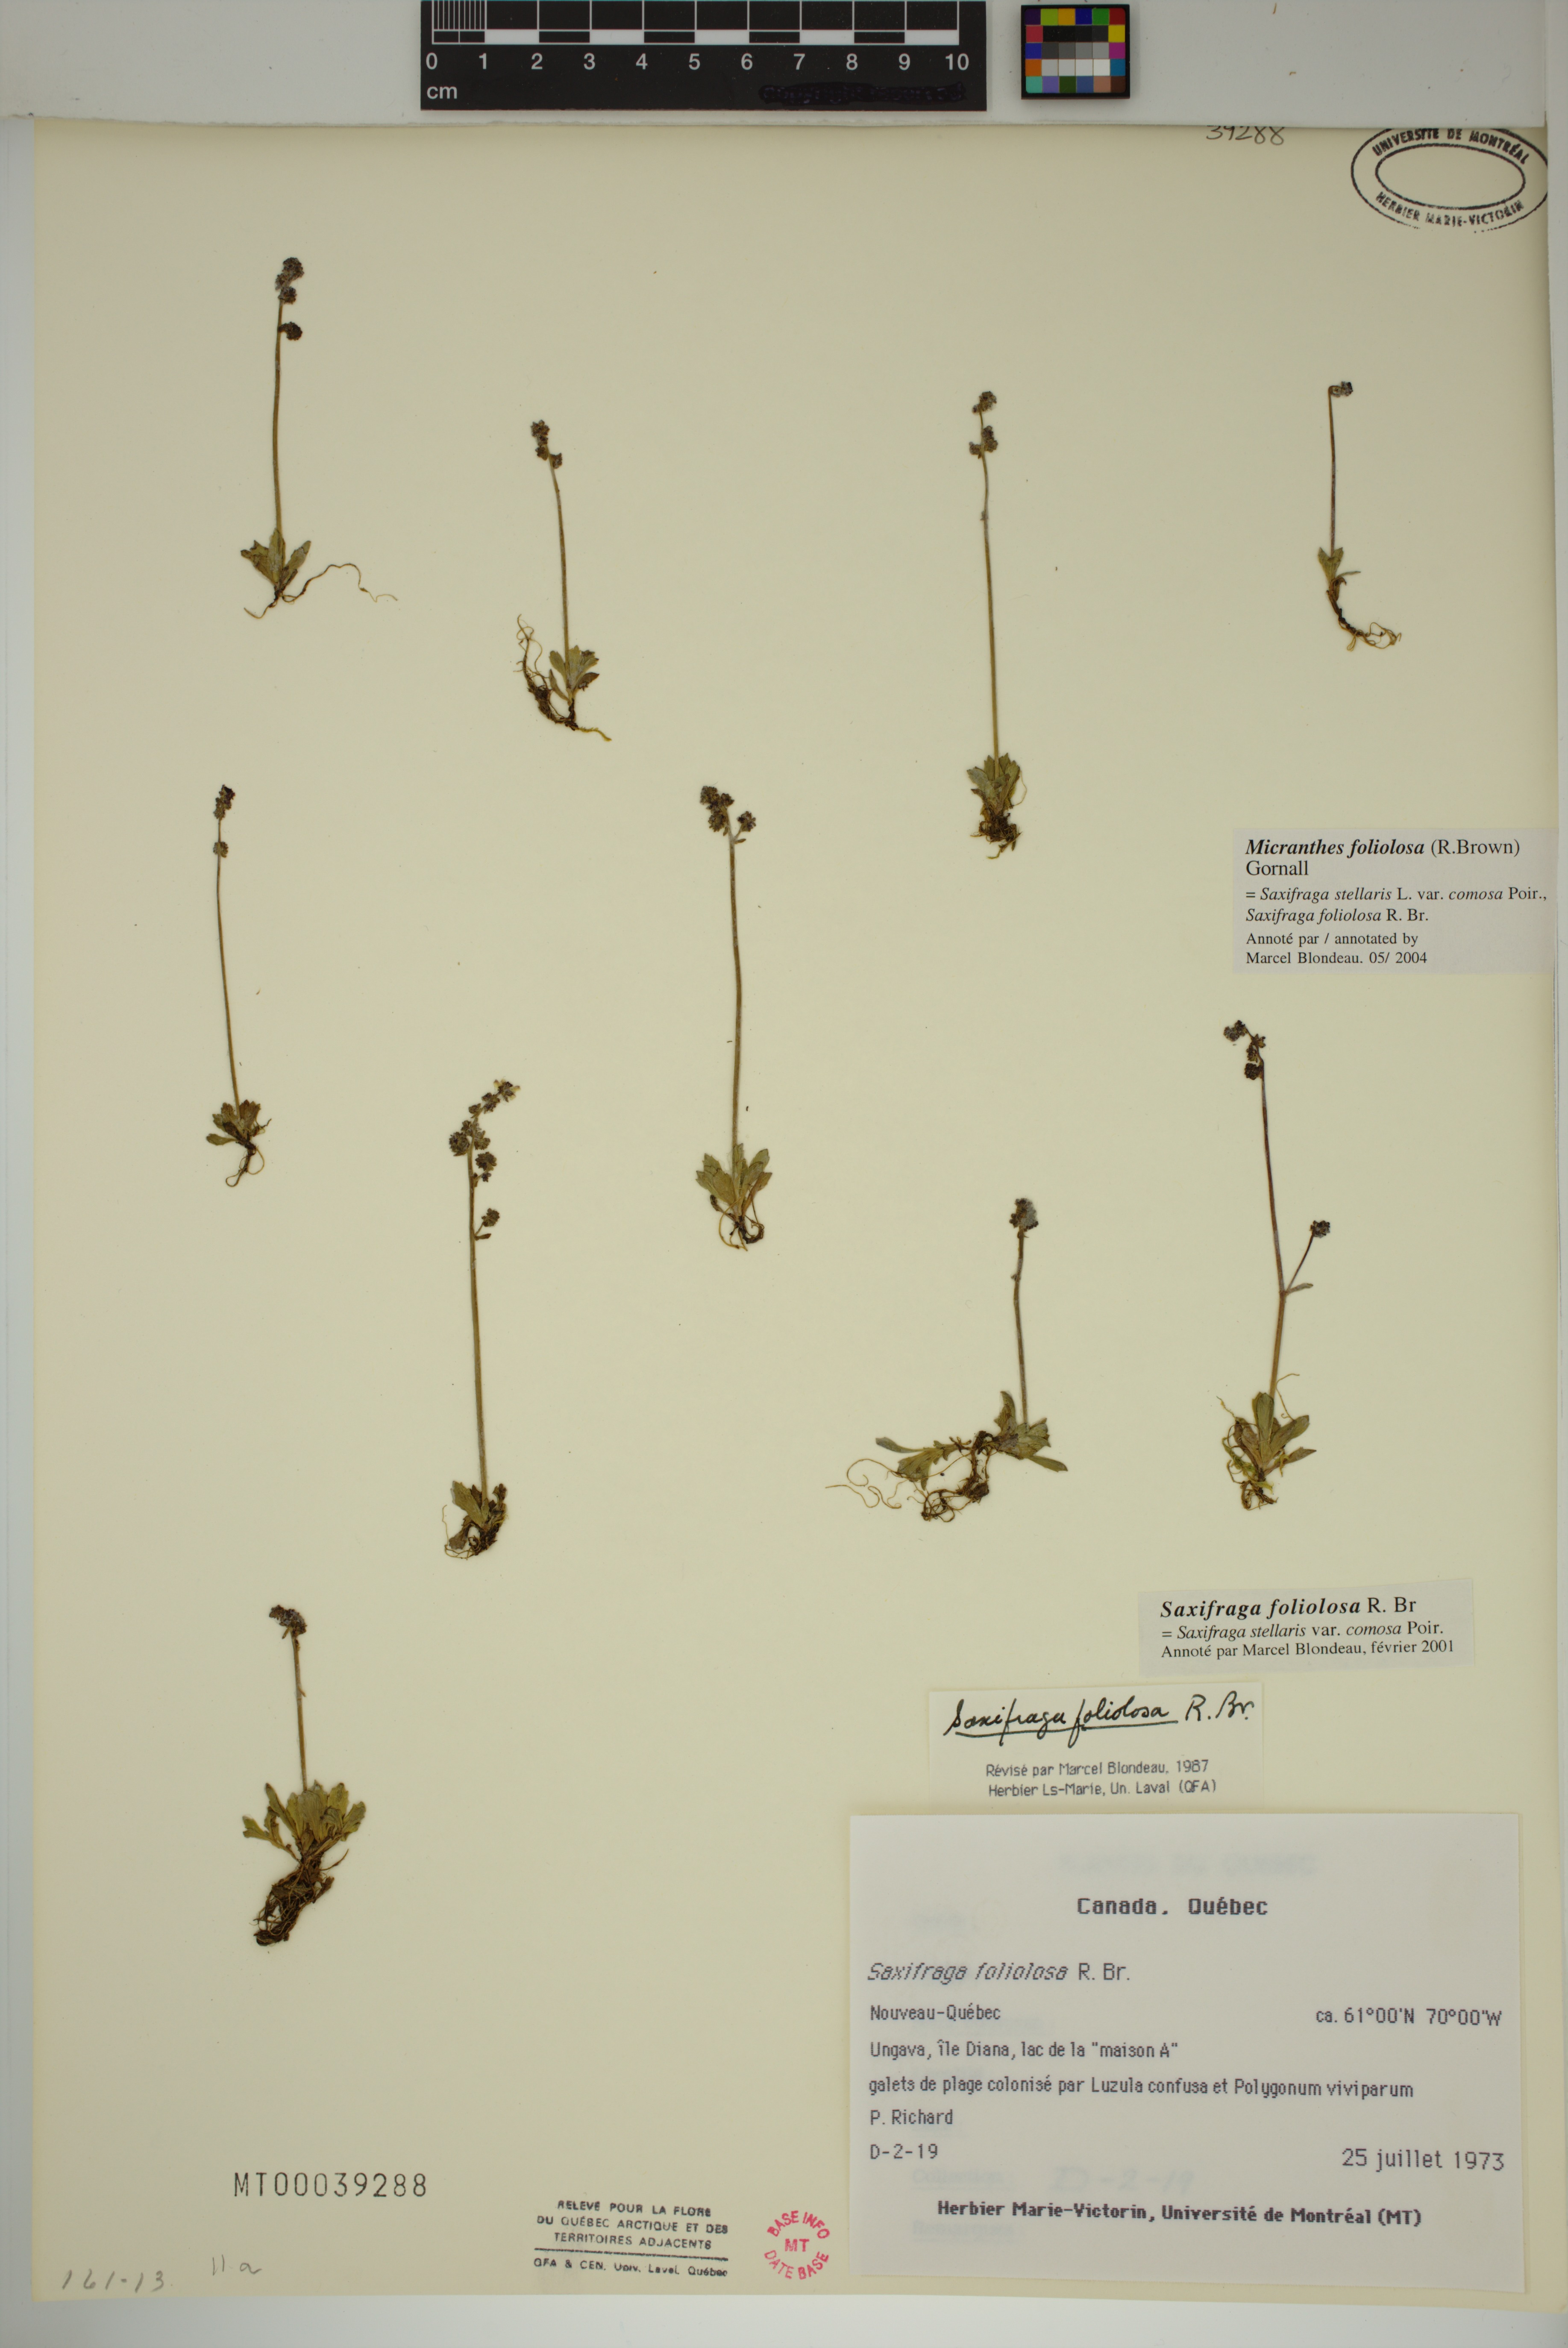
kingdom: Plantae
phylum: Tracheophyta
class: Magnoliopsida
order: Saxifragales
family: Saxifragaceae
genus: Micranthes
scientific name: Micranthes foliolosa
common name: Leafystem saxifrage
